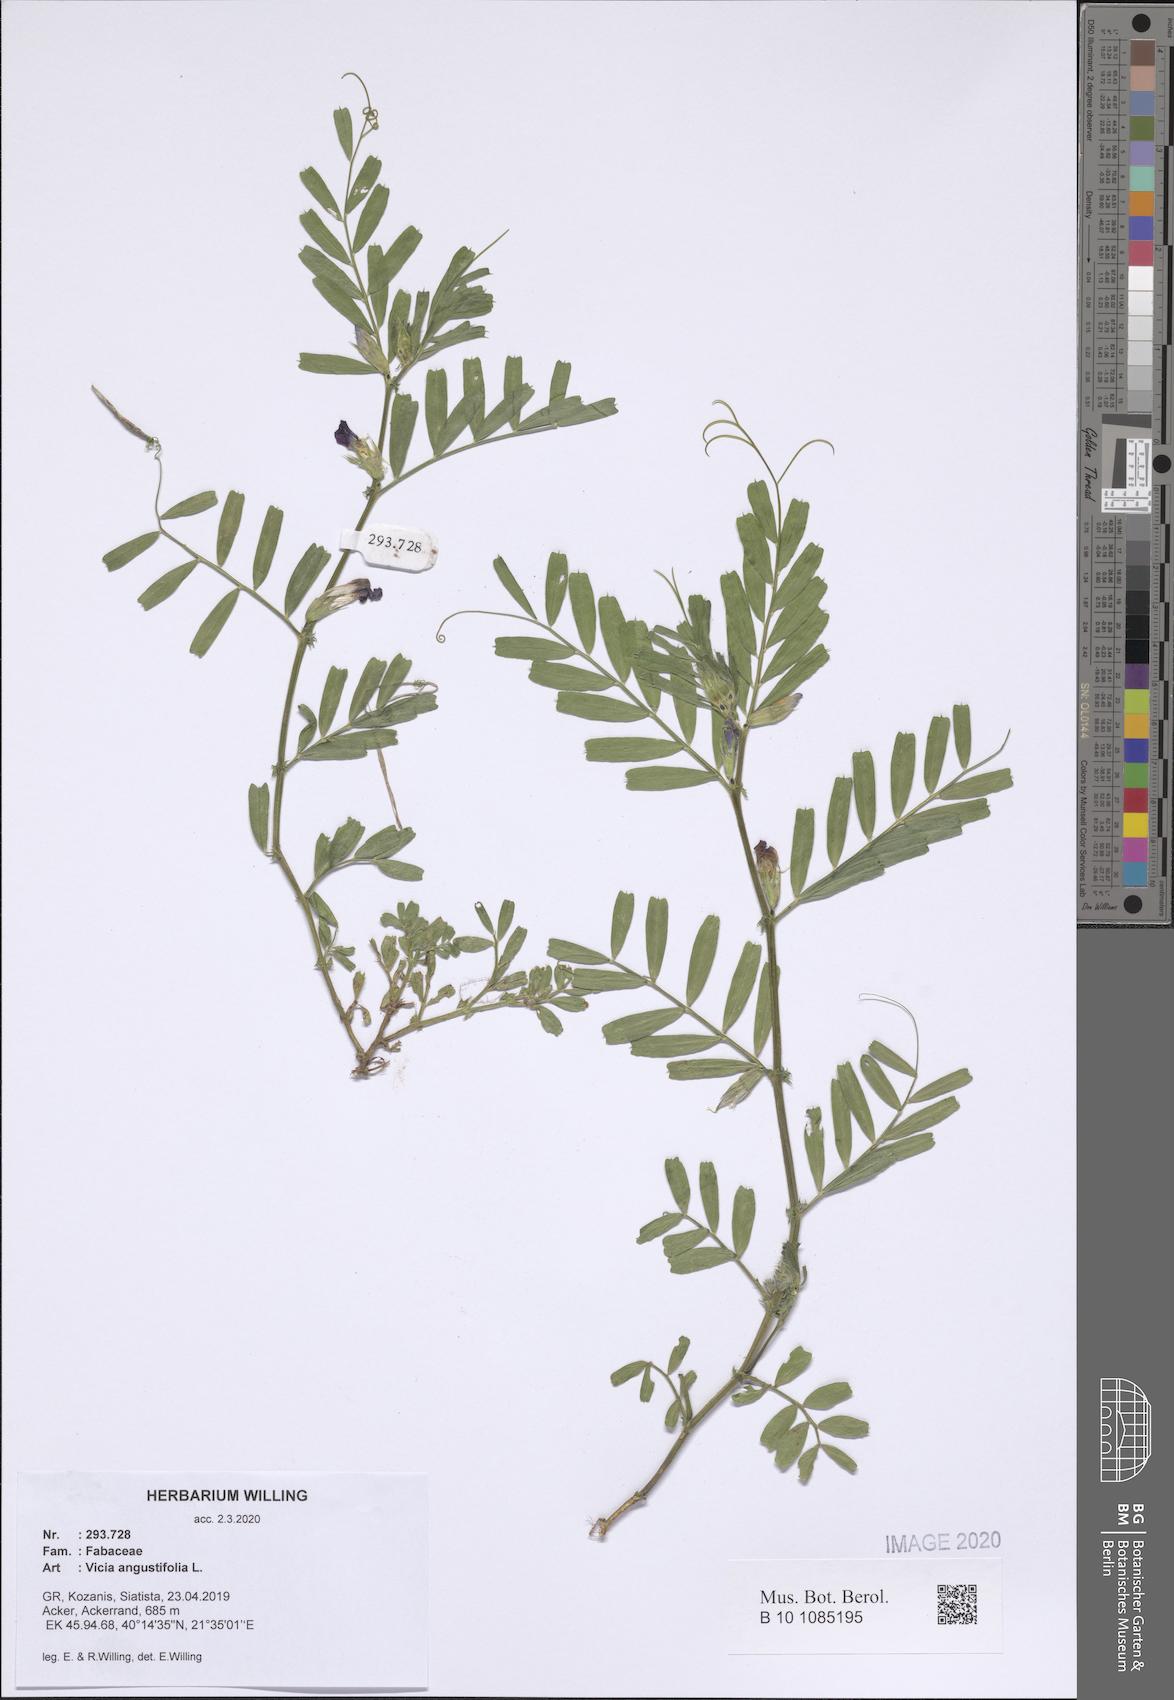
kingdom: Plantae
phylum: Tracheophyta
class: Magnoliopsida
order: Fabales
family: Fabaceae
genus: Vicia
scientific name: Vicia sativa
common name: Garden vetch
